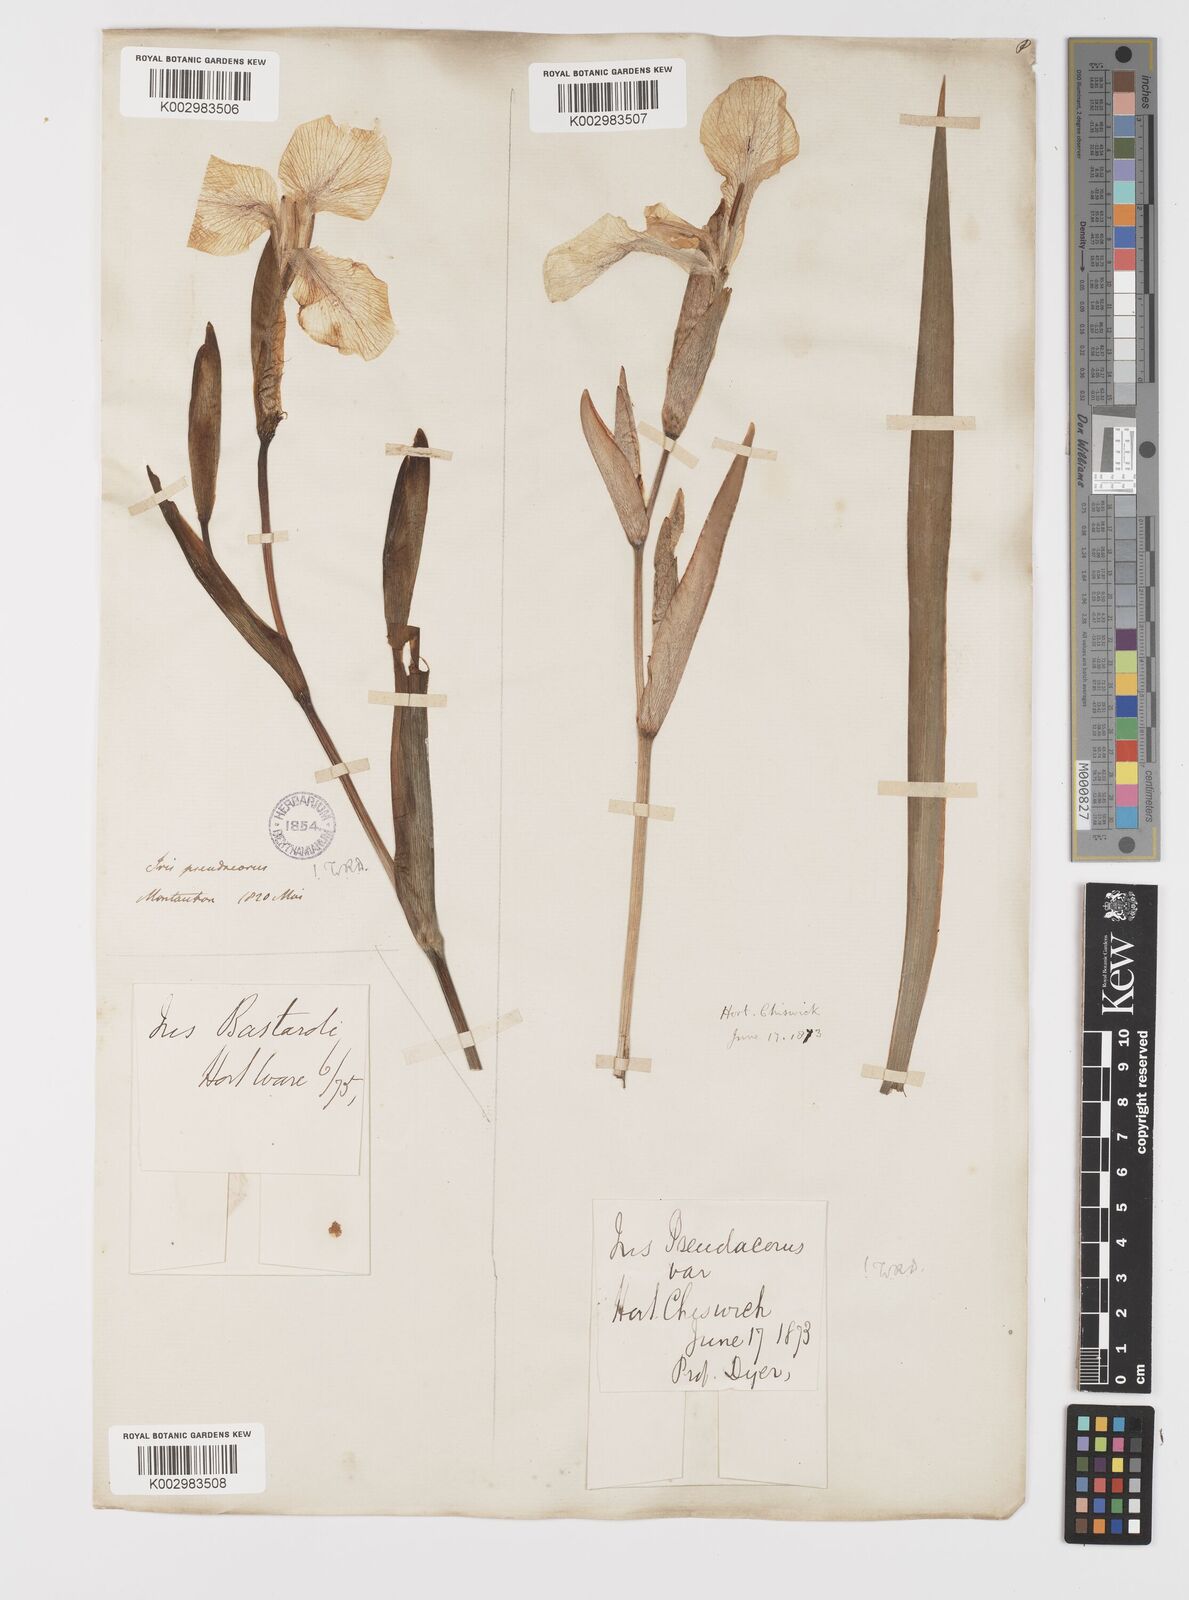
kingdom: Plantae
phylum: Tracheophyta
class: Liliopsida
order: Asparagales
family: Iridaceae
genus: Iris
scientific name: Iris pseudacorus
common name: Yellow flag
